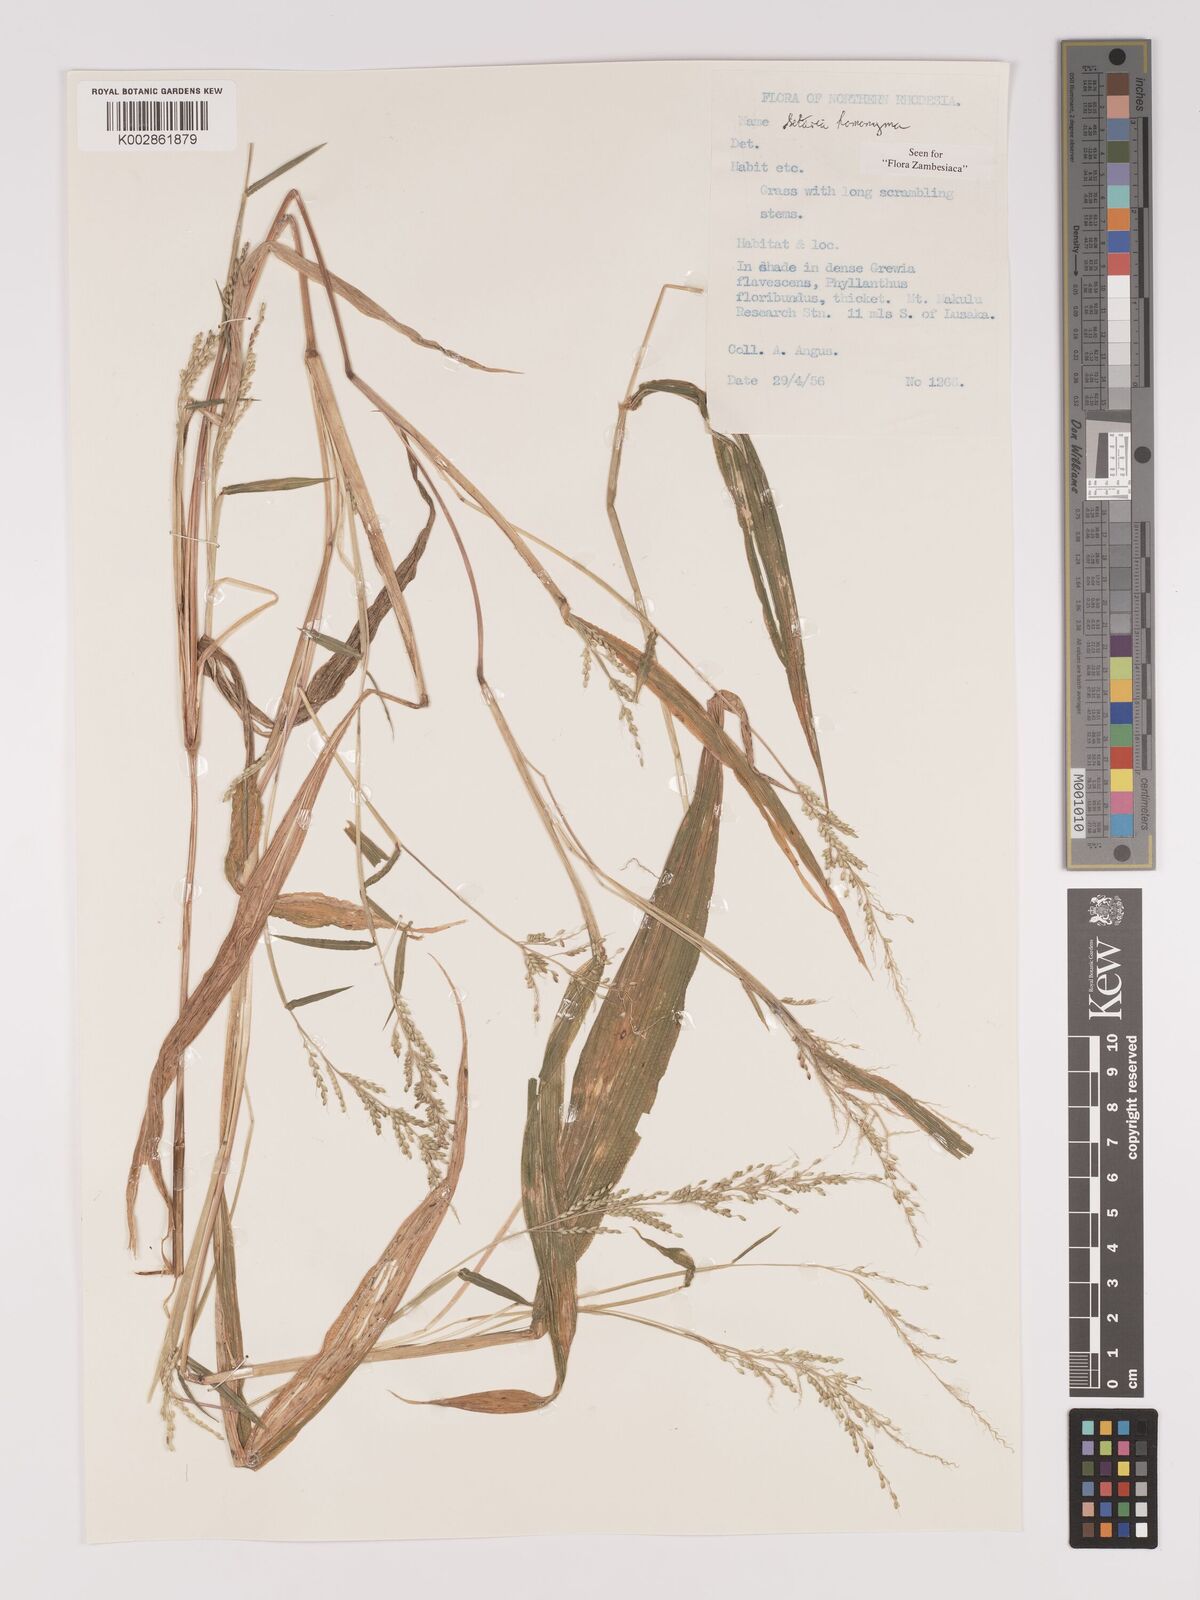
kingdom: Plantae
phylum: Tracheophyta
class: Liliopsida
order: Poales
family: Poaceae
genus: Setaria
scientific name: Setaria homonyma
